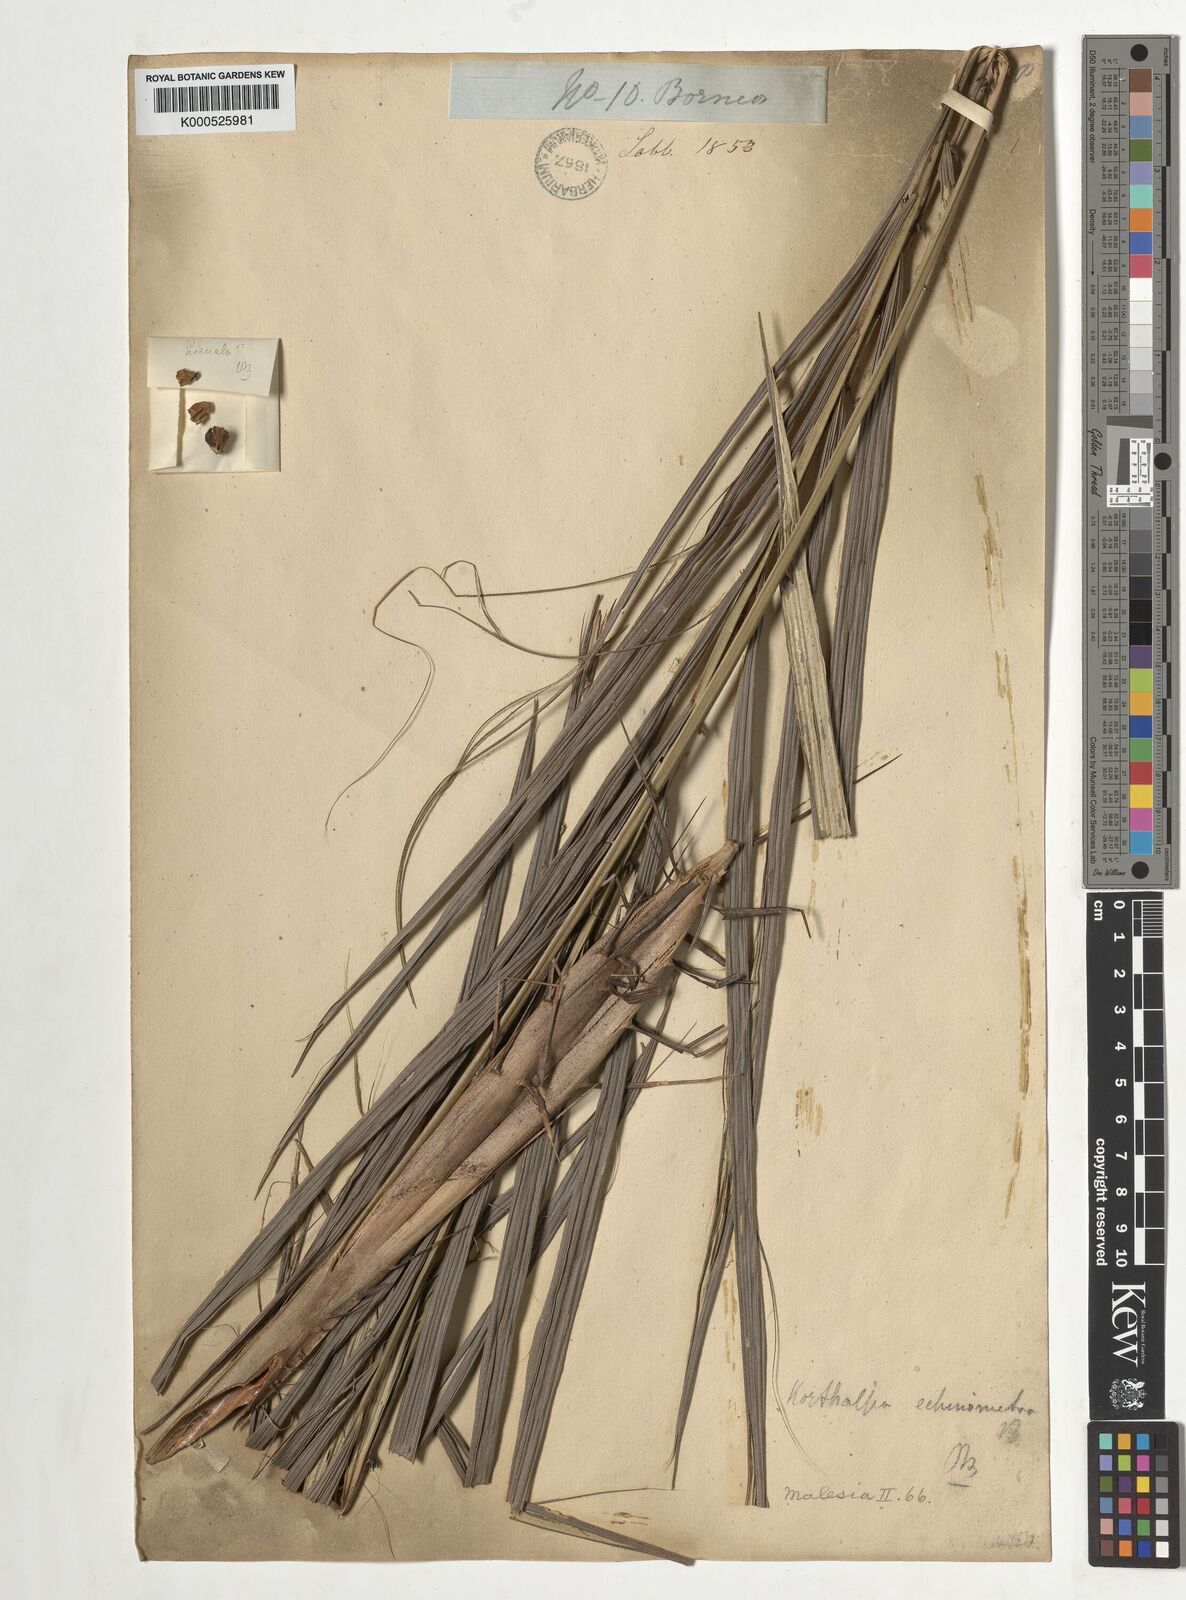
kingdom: Plantae
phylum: Tracheophyta
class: Liliopsida
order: Arecales
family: Arecaceae
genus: Korthalsia
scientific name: Korthalsia echinometra
